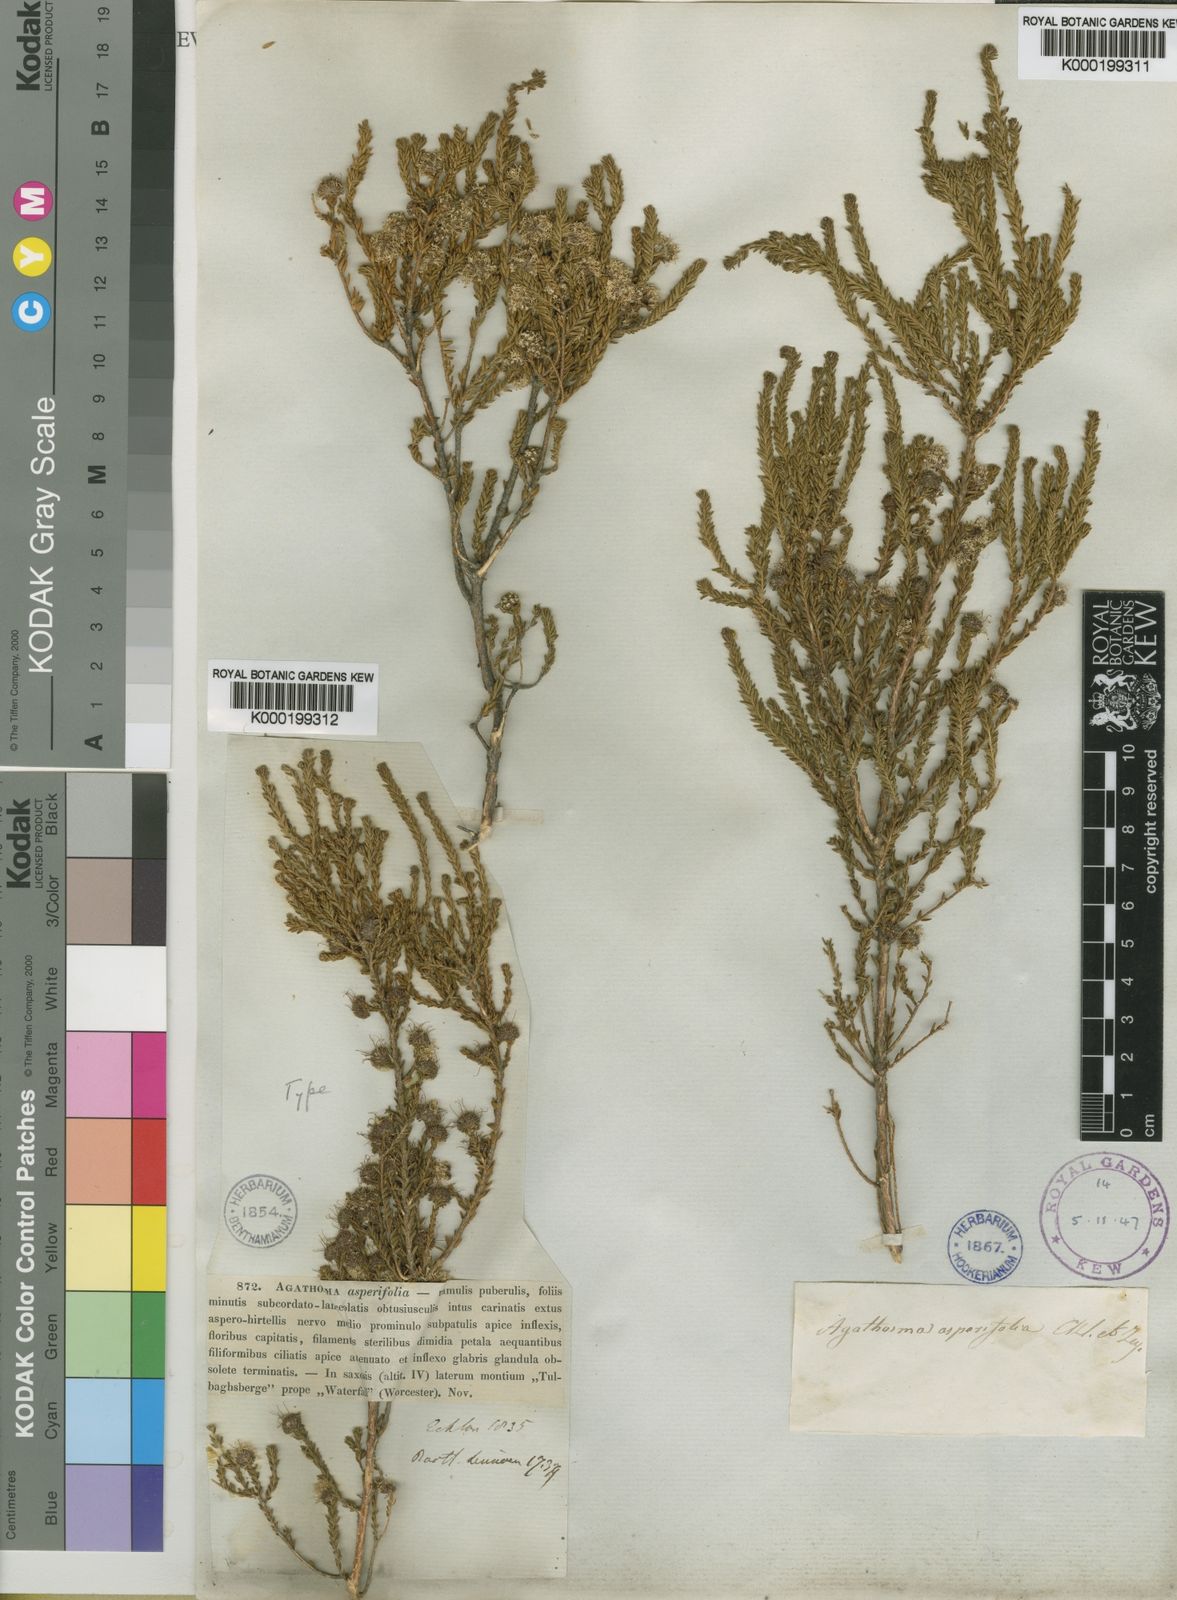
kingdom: Plantae
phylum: Tracheophyta
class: Magnoliopsida
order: Sapindales
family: Rutaceae
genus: Agathosma
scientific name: Agathosma asperifolia
